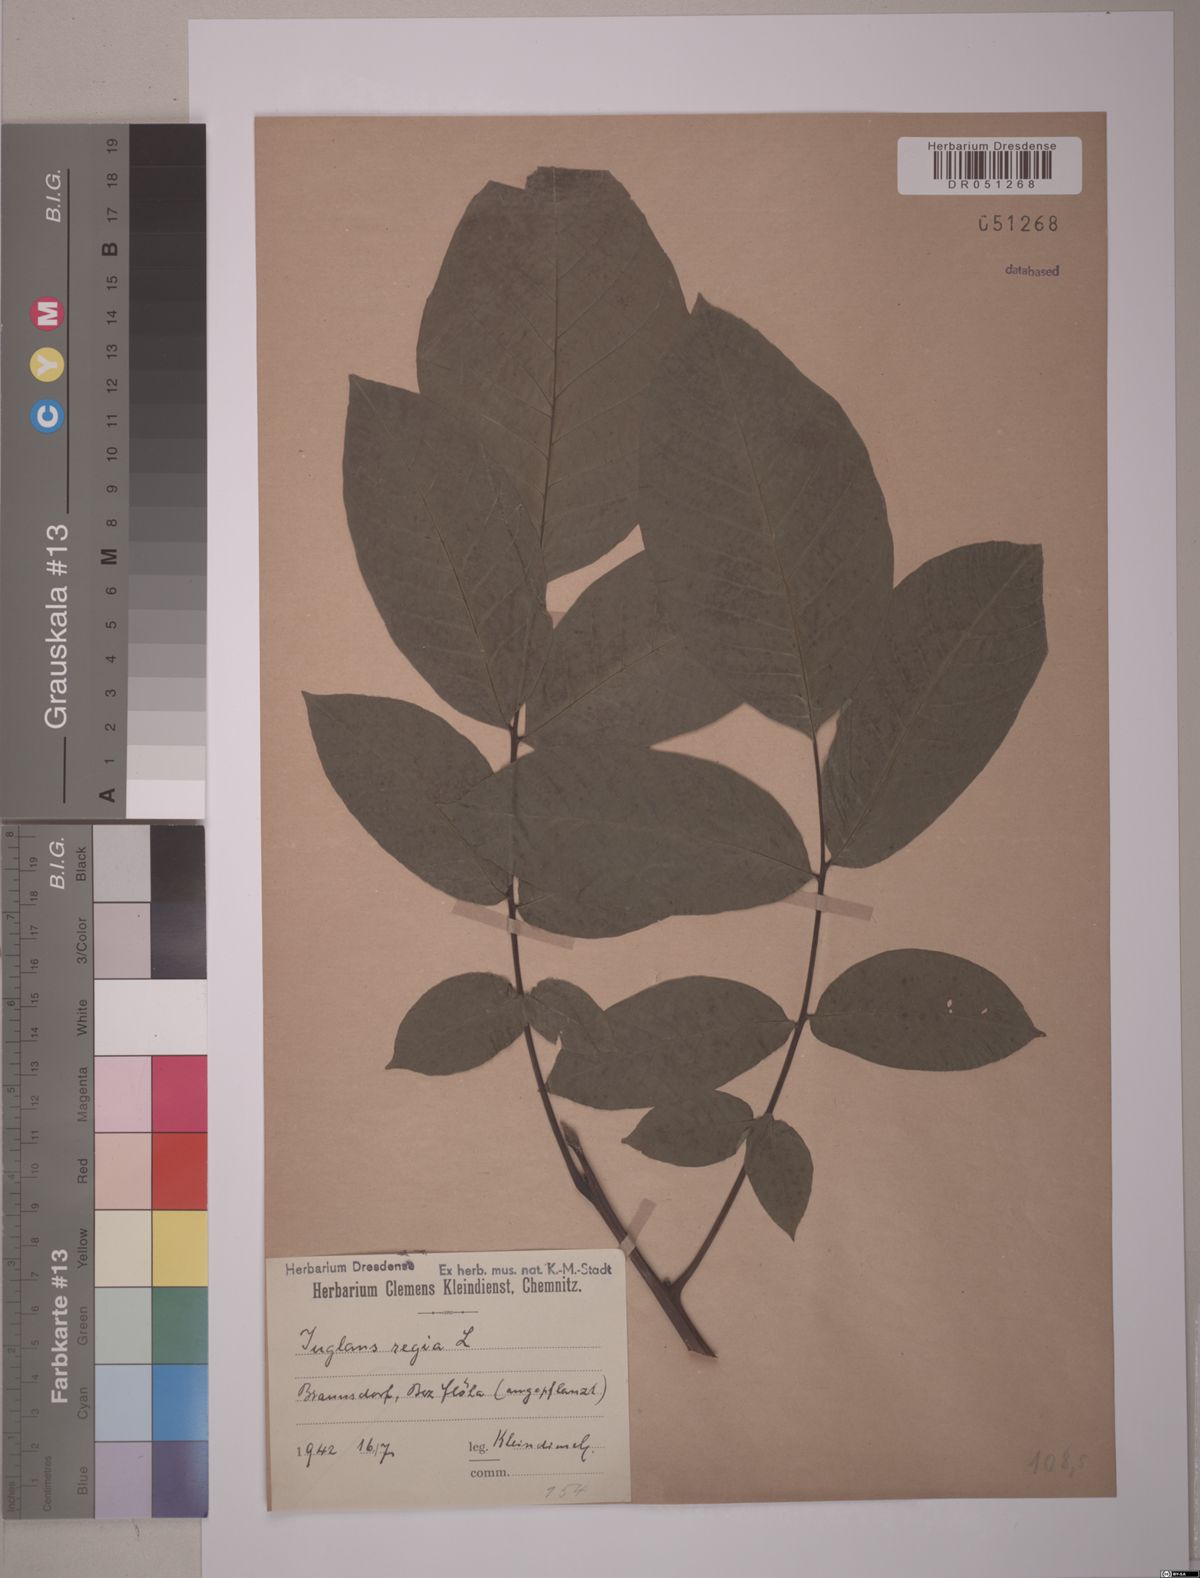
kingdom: Plantae
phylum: Tracheophyta
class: Magnoliopsida
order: Fagales
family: Juglandaceae
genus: Juglans
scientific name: Juglans regia
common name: Walnut
